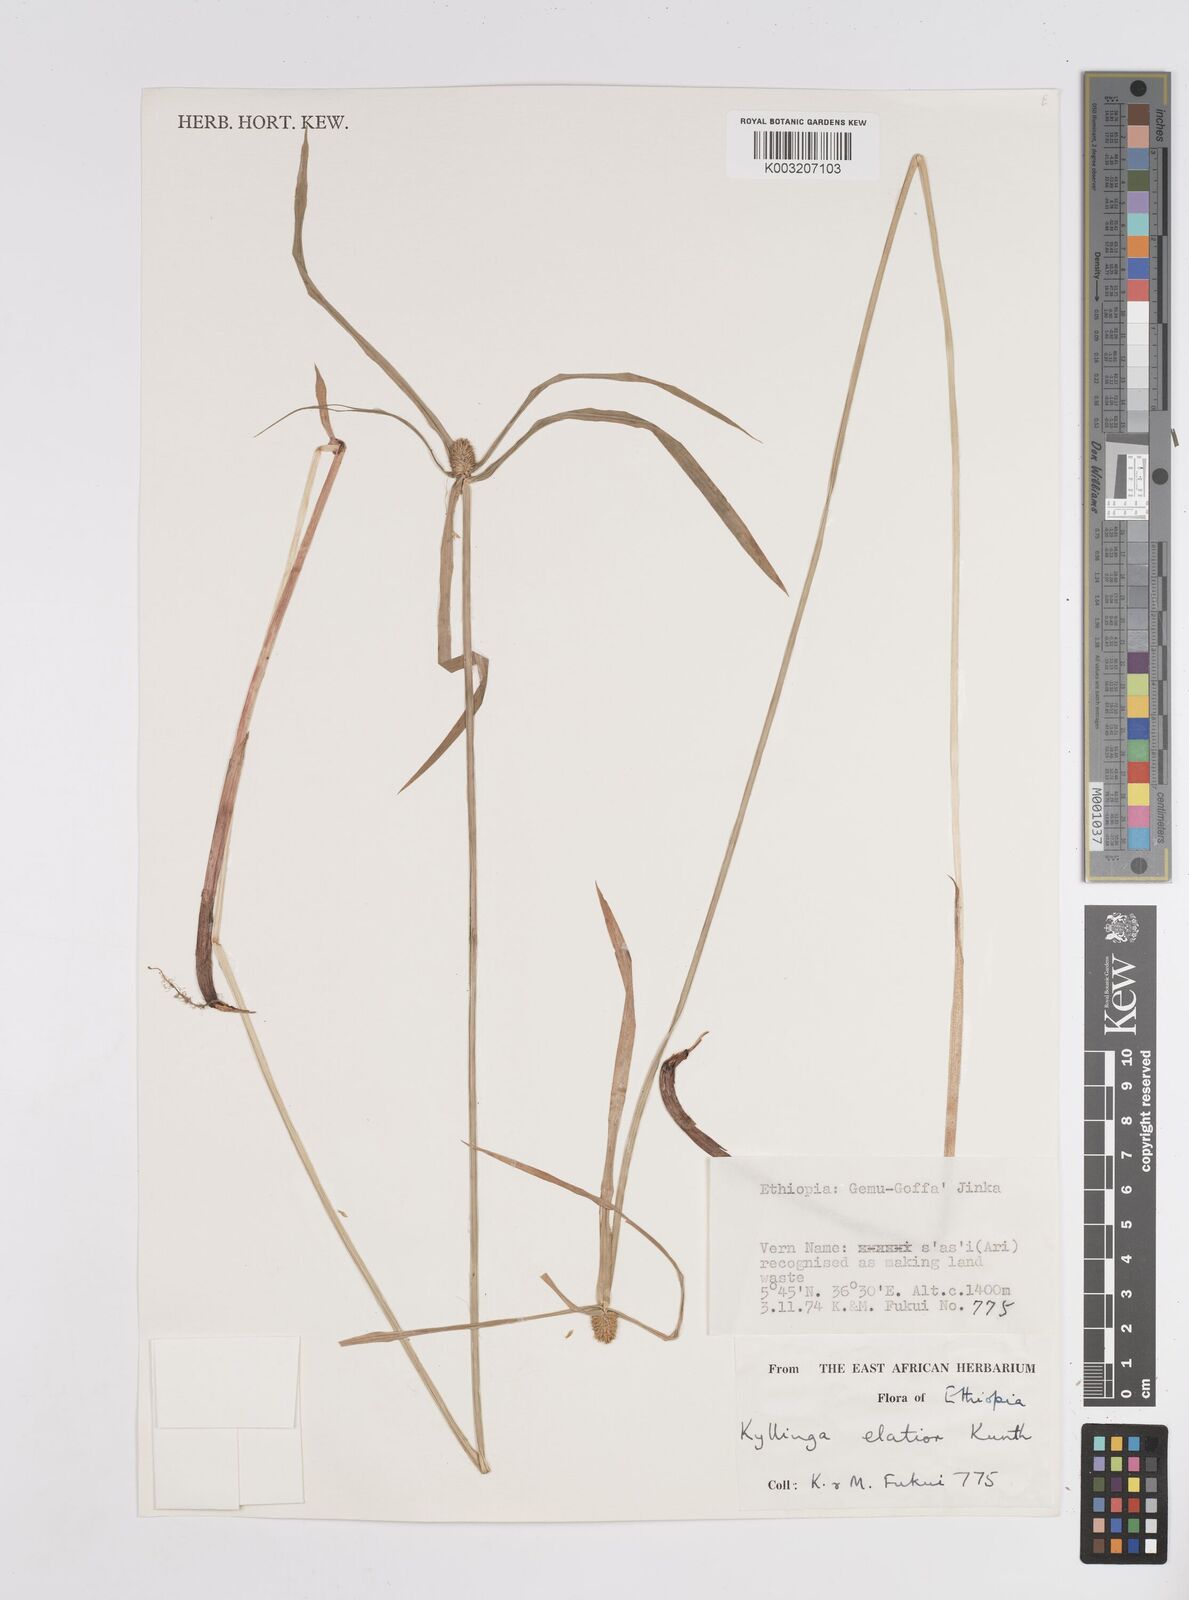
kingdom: Plantae
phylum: Tracheophyta
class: Liliopsida
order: Poales
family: Cyperaceae
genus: Cyperus
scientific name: Cyperus
